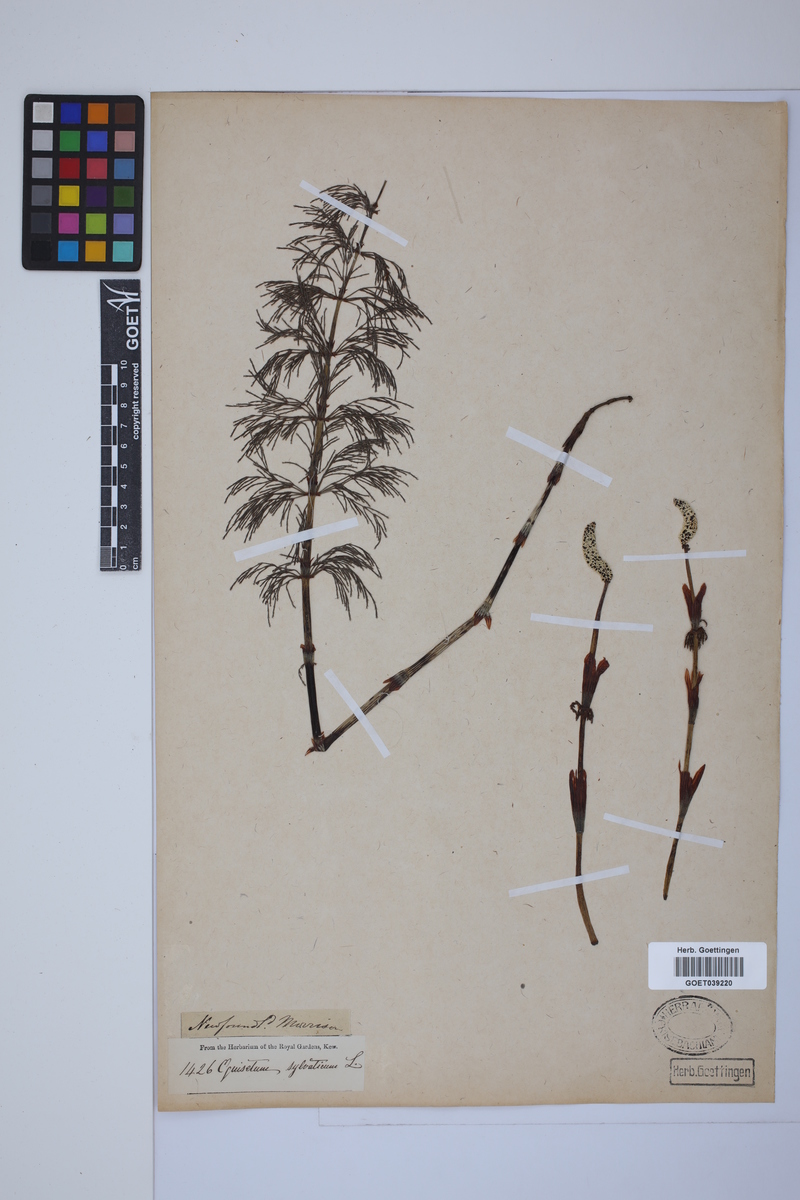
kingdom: Plantae
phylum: Tracheophyta
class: Polypodiopsida
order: Equisetales
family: Equisetaceae
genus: Equisetum
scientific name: Equisetum sylvaticum
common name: Wood horsetail
